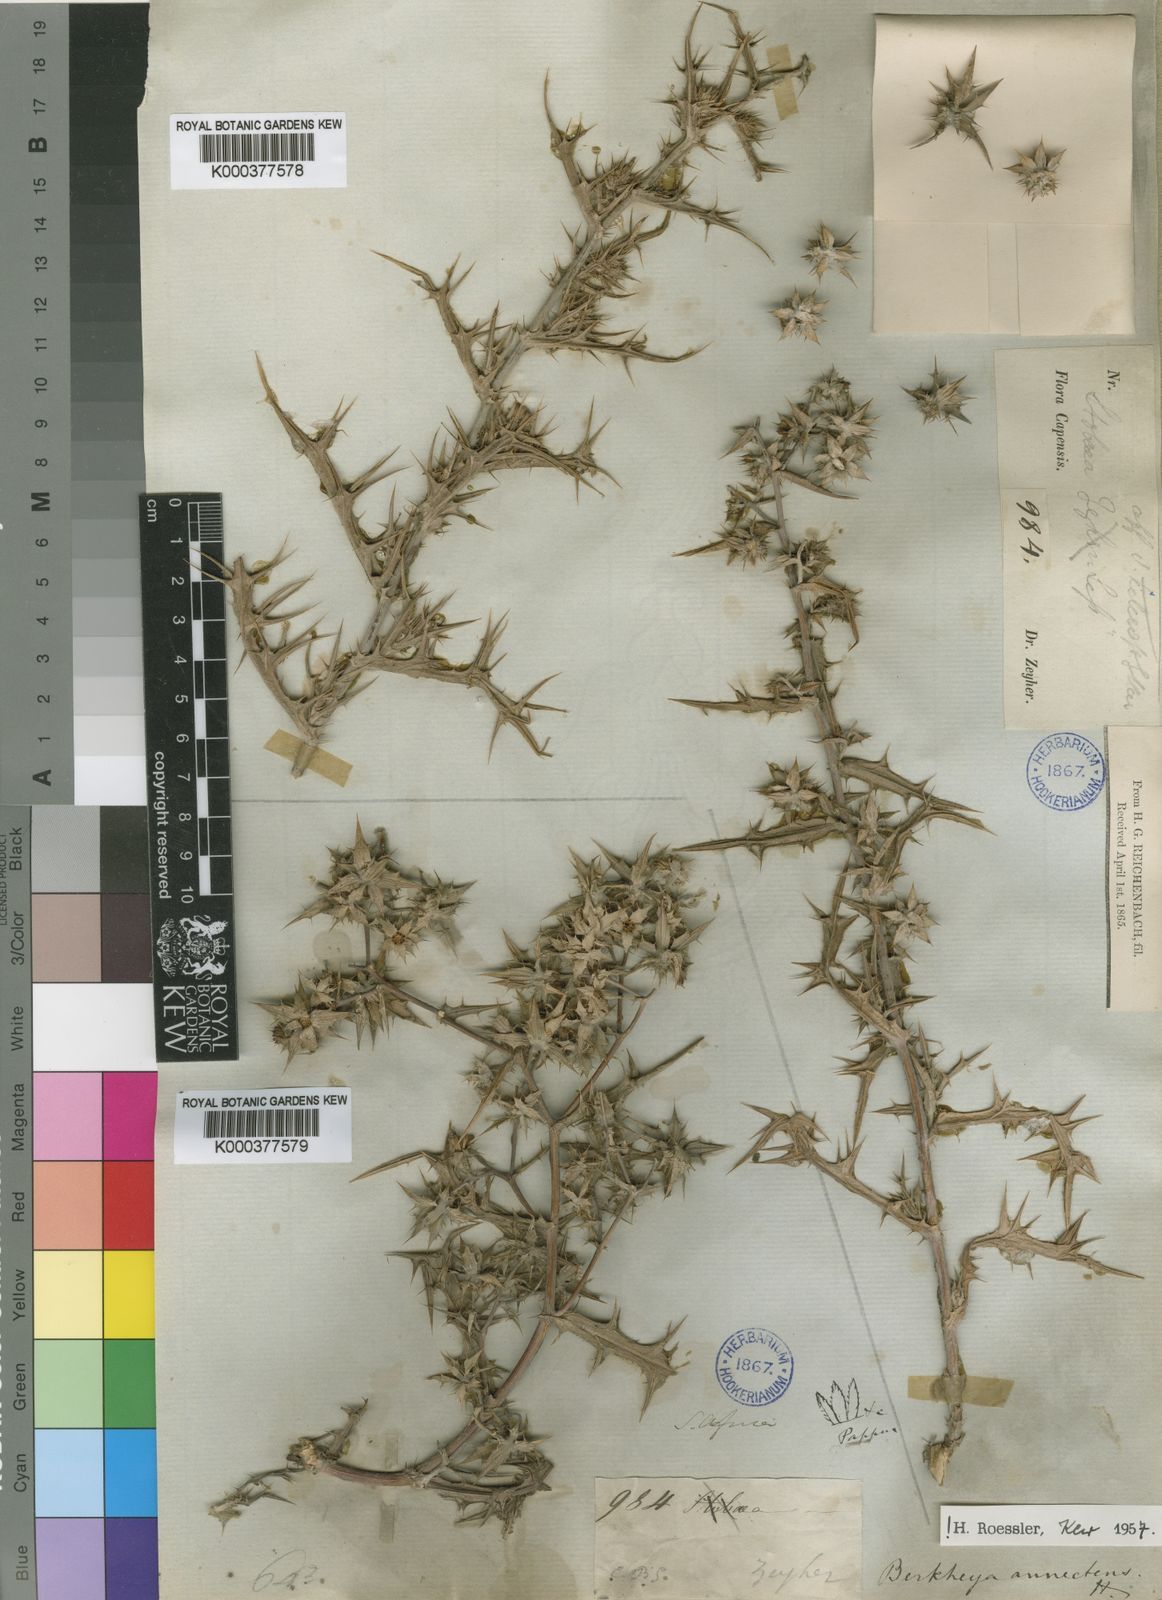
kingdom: Plantae
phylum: Tracheophyta
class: Magnoliopsida
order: Asterales
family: Asteraceae
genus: Berkheya
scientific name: Berkheya annectens
